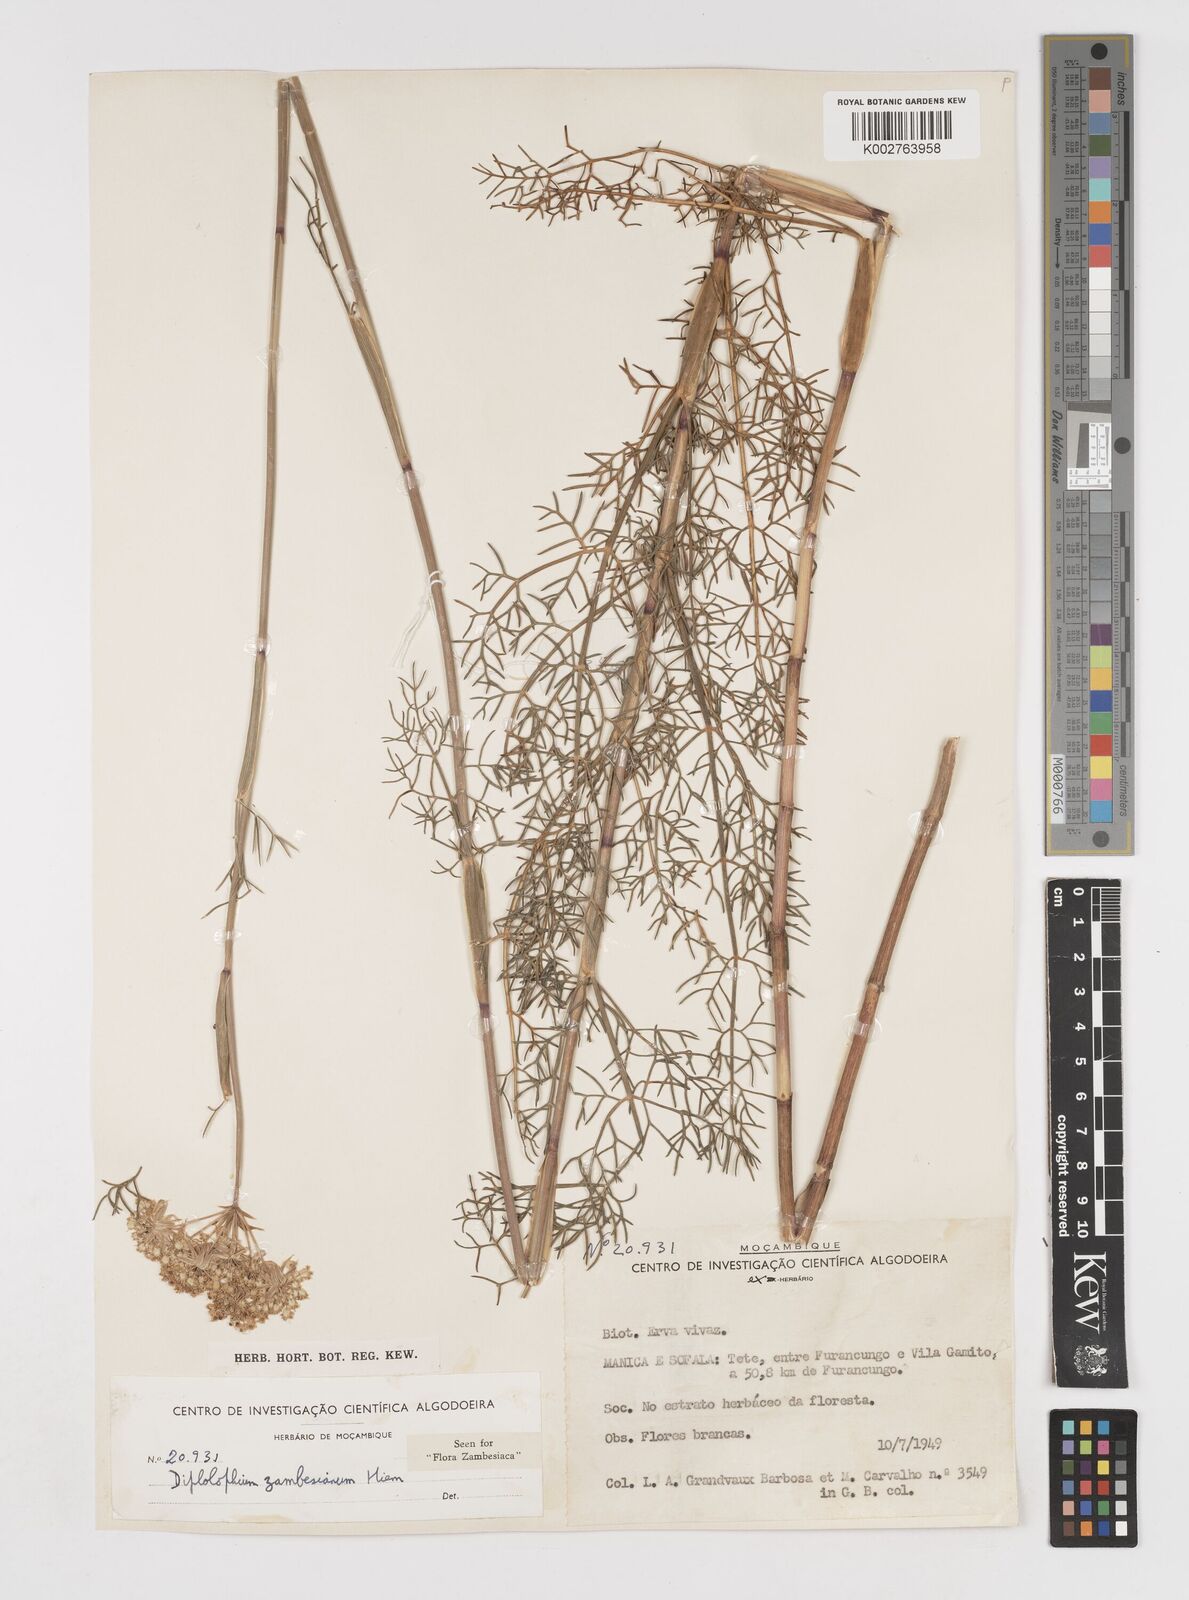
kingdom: Plantae
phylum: Tracheophyta
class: Magnoliopsida
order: Apiales
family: Apiaceae
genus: Diplolophium
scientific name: Diplolophium zambesianum
